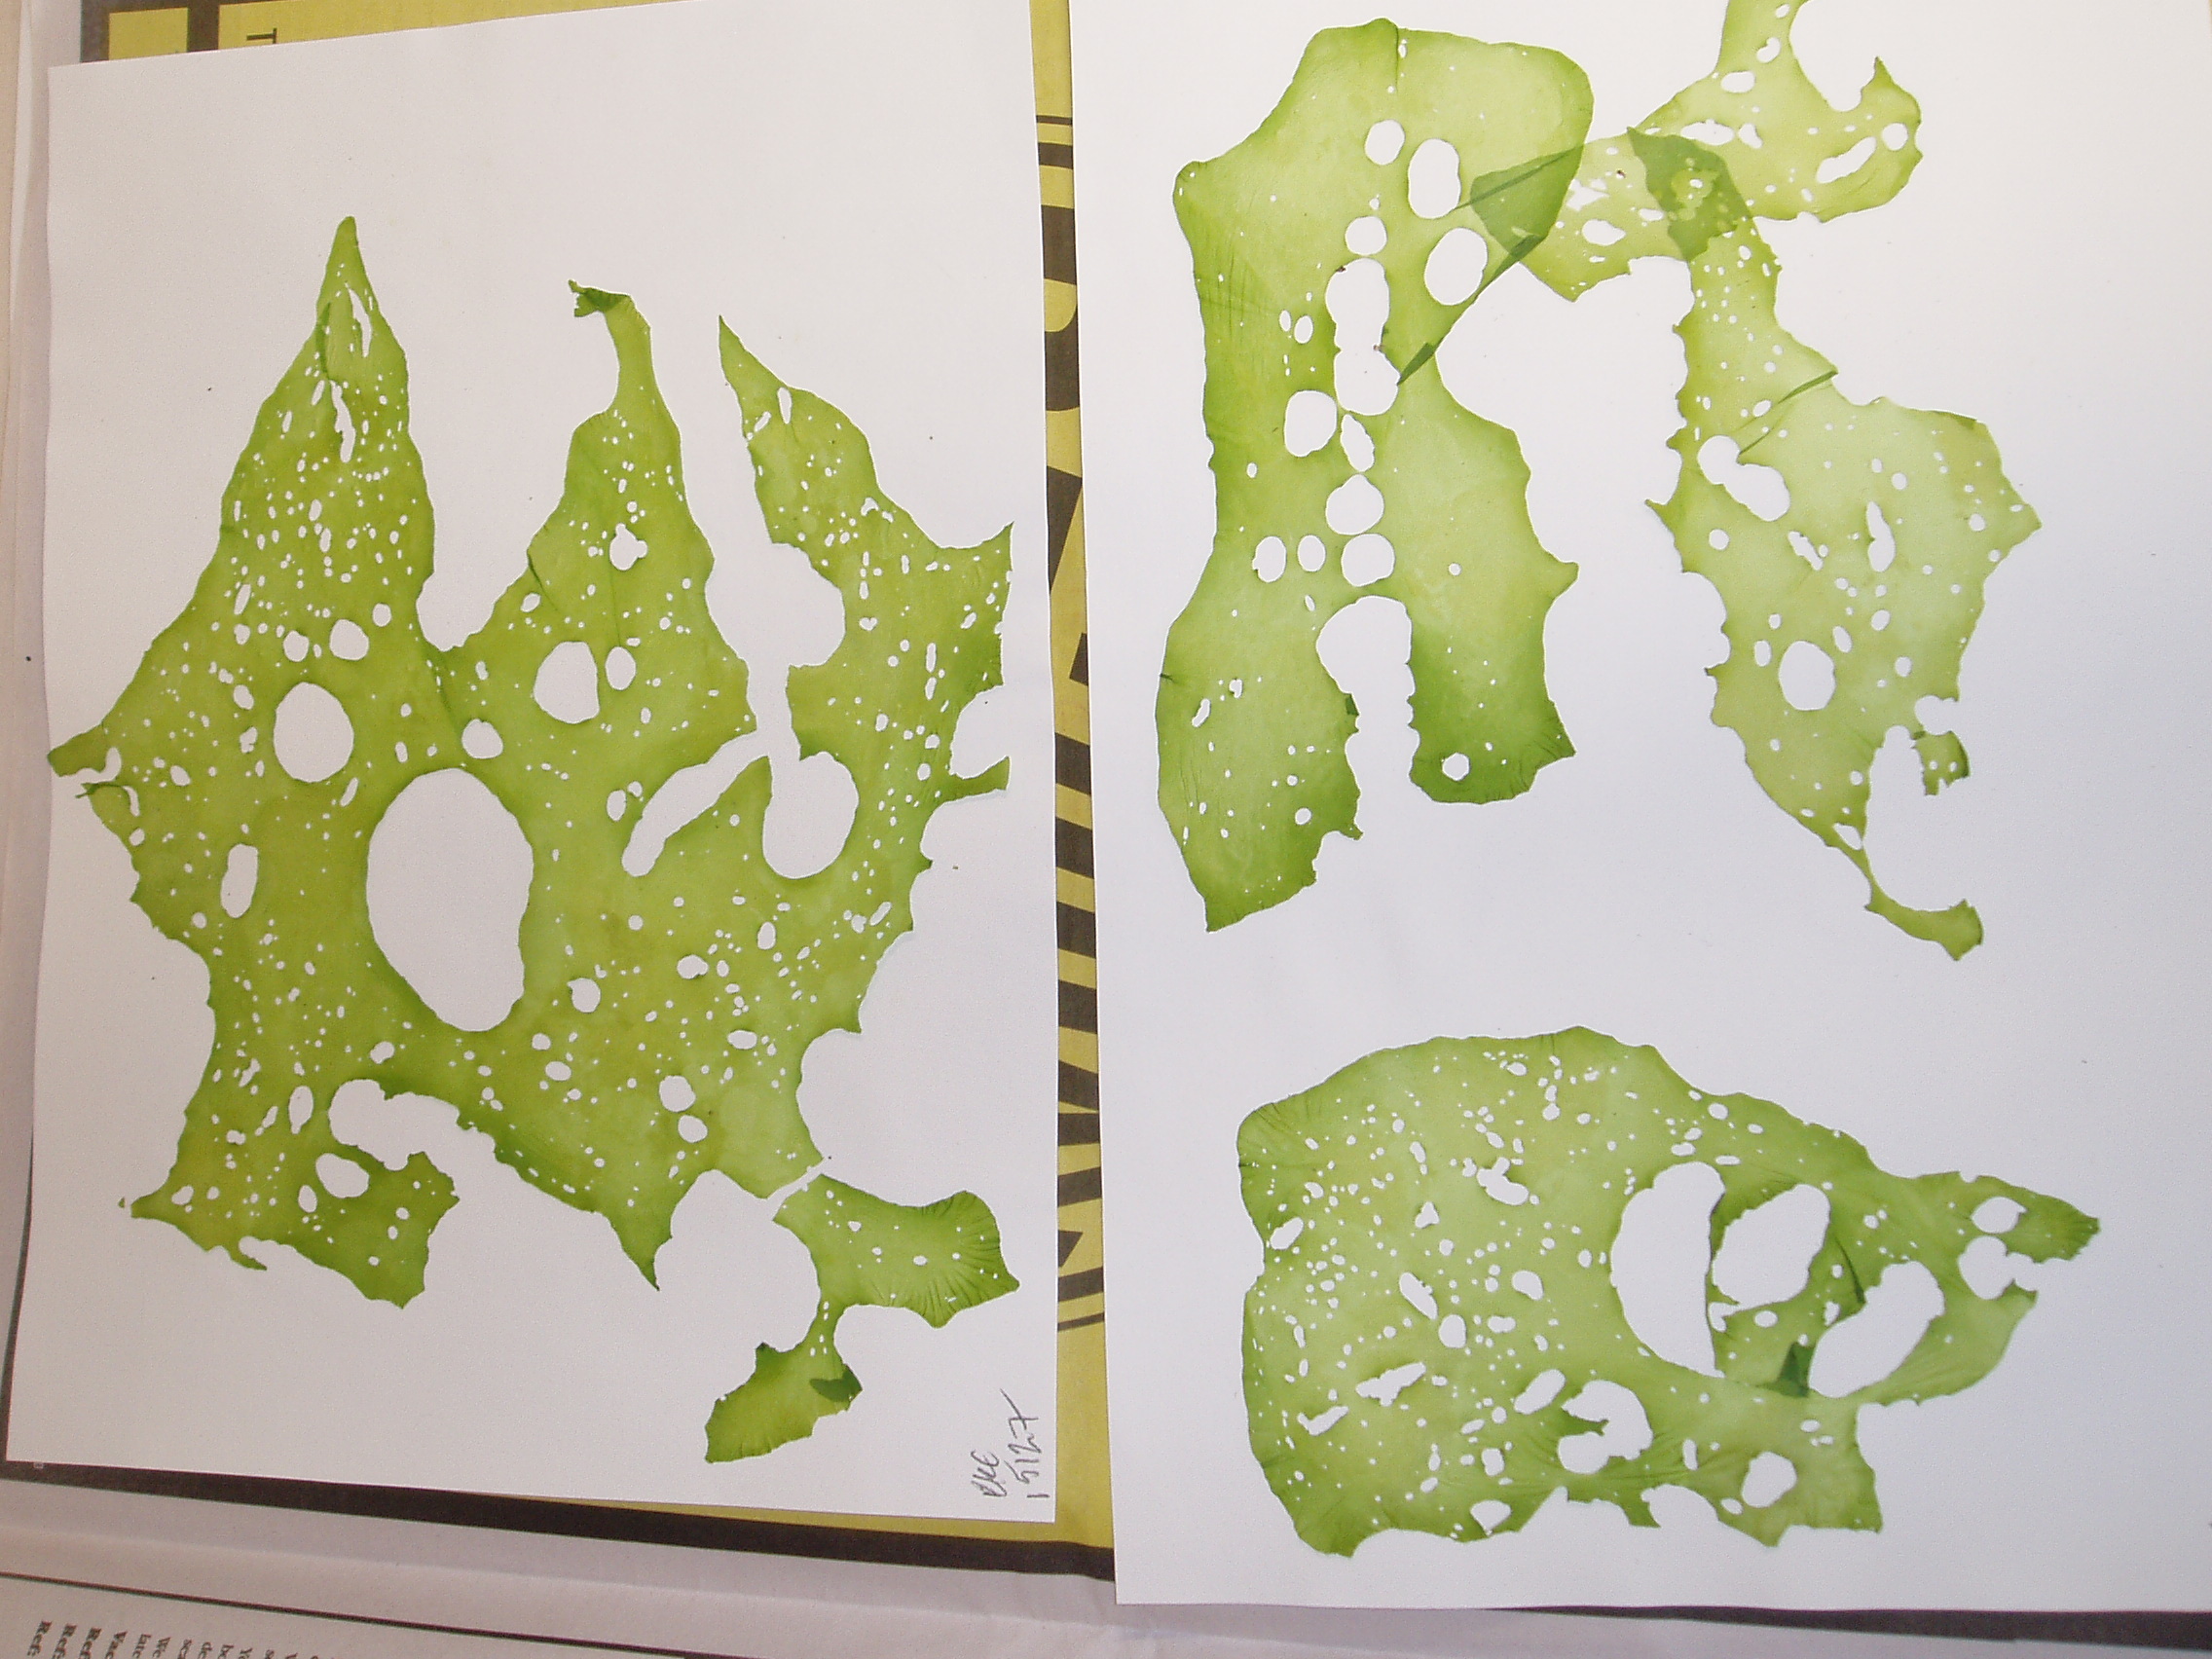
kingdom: Plantae
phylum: Chlorophyta
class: Ulvophyceae
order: Ulvales
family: Ulvaceae
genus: Ulva
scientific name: Ulva
